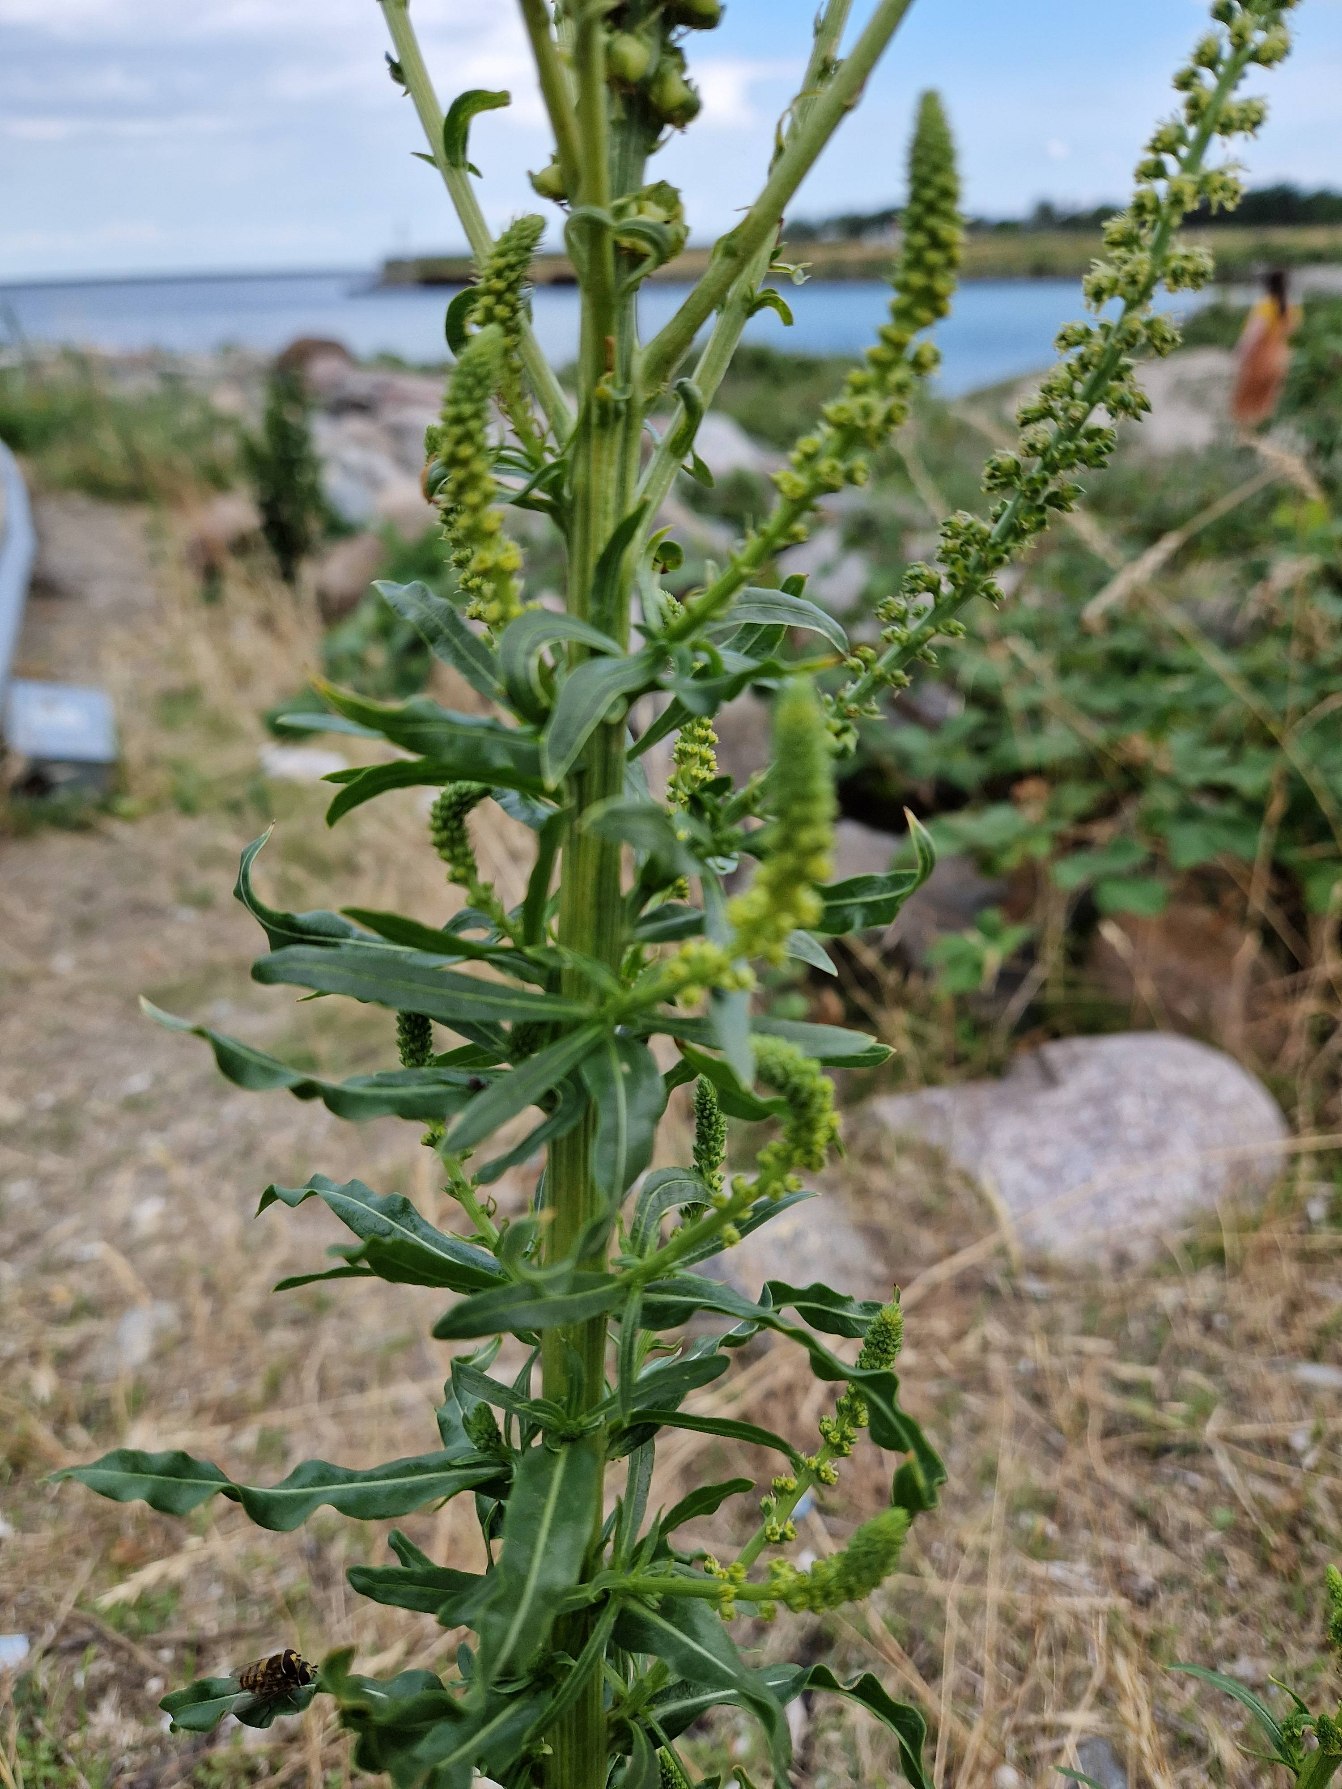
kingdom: Plantae
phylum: Tracheophyta
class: Magnoliopsida
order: Brassicales
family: Resedaceae
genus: Reseda
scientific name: Reseda luteola
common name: Farve-reseda
